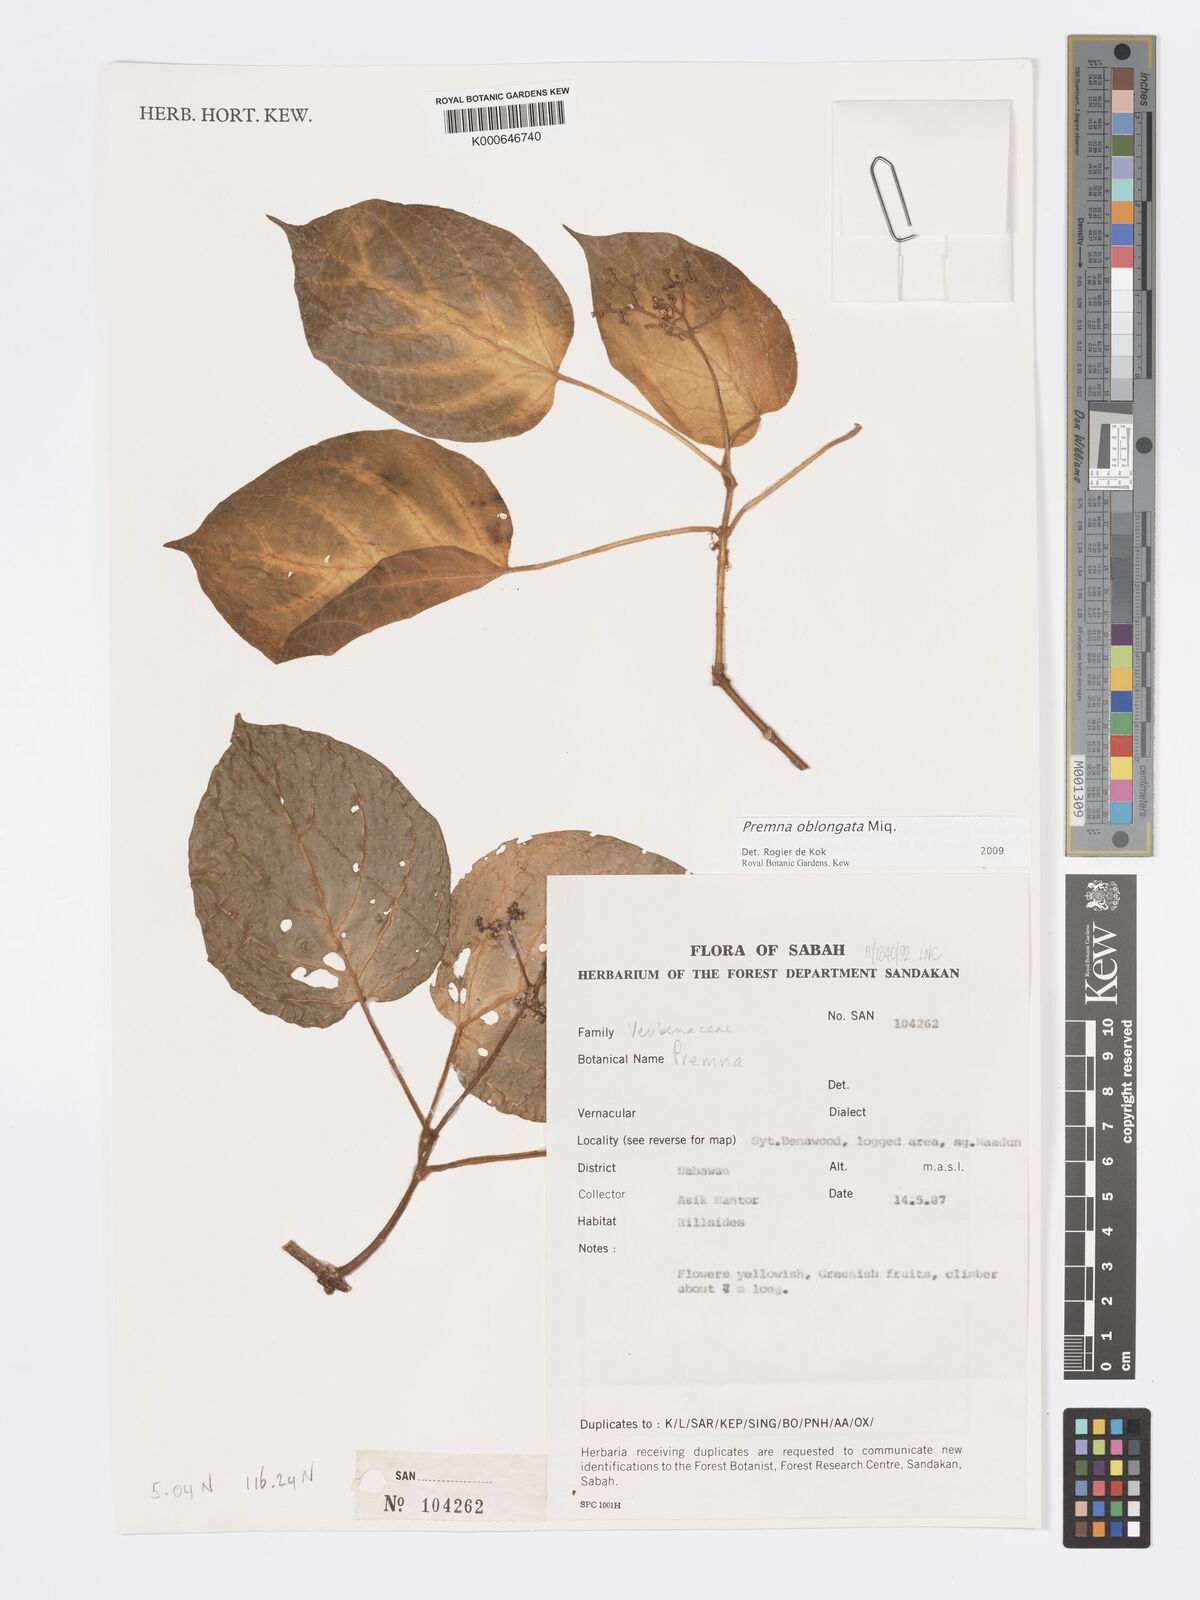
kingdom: Plantae
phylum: Tracheophyta
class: Magnoliopsida
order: Lamiales
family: Lamiaceae
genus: Premna
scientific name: Premna oblongata
